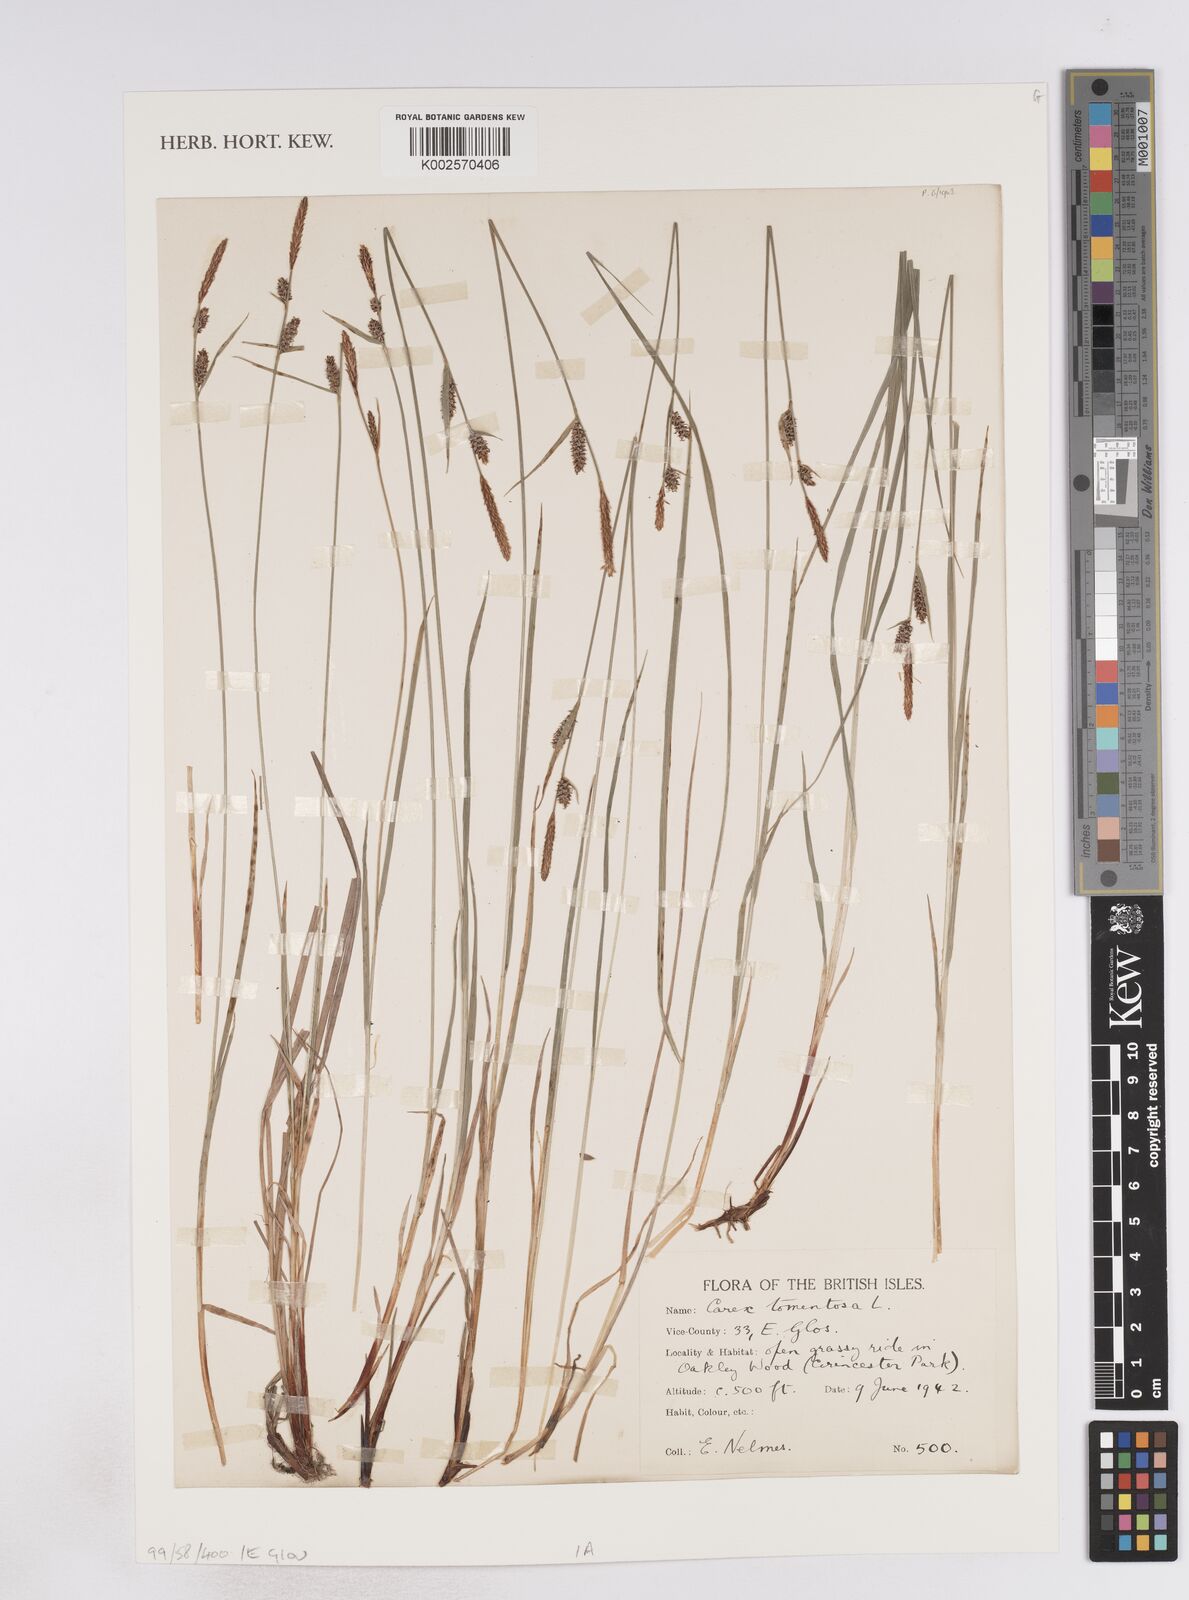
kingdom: Plantae
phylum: Tracheophyta
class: Liliopsida
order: Poales
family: Cyperaceae
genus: Carex
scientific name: Carex montana
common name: Soft-leaved sedge
